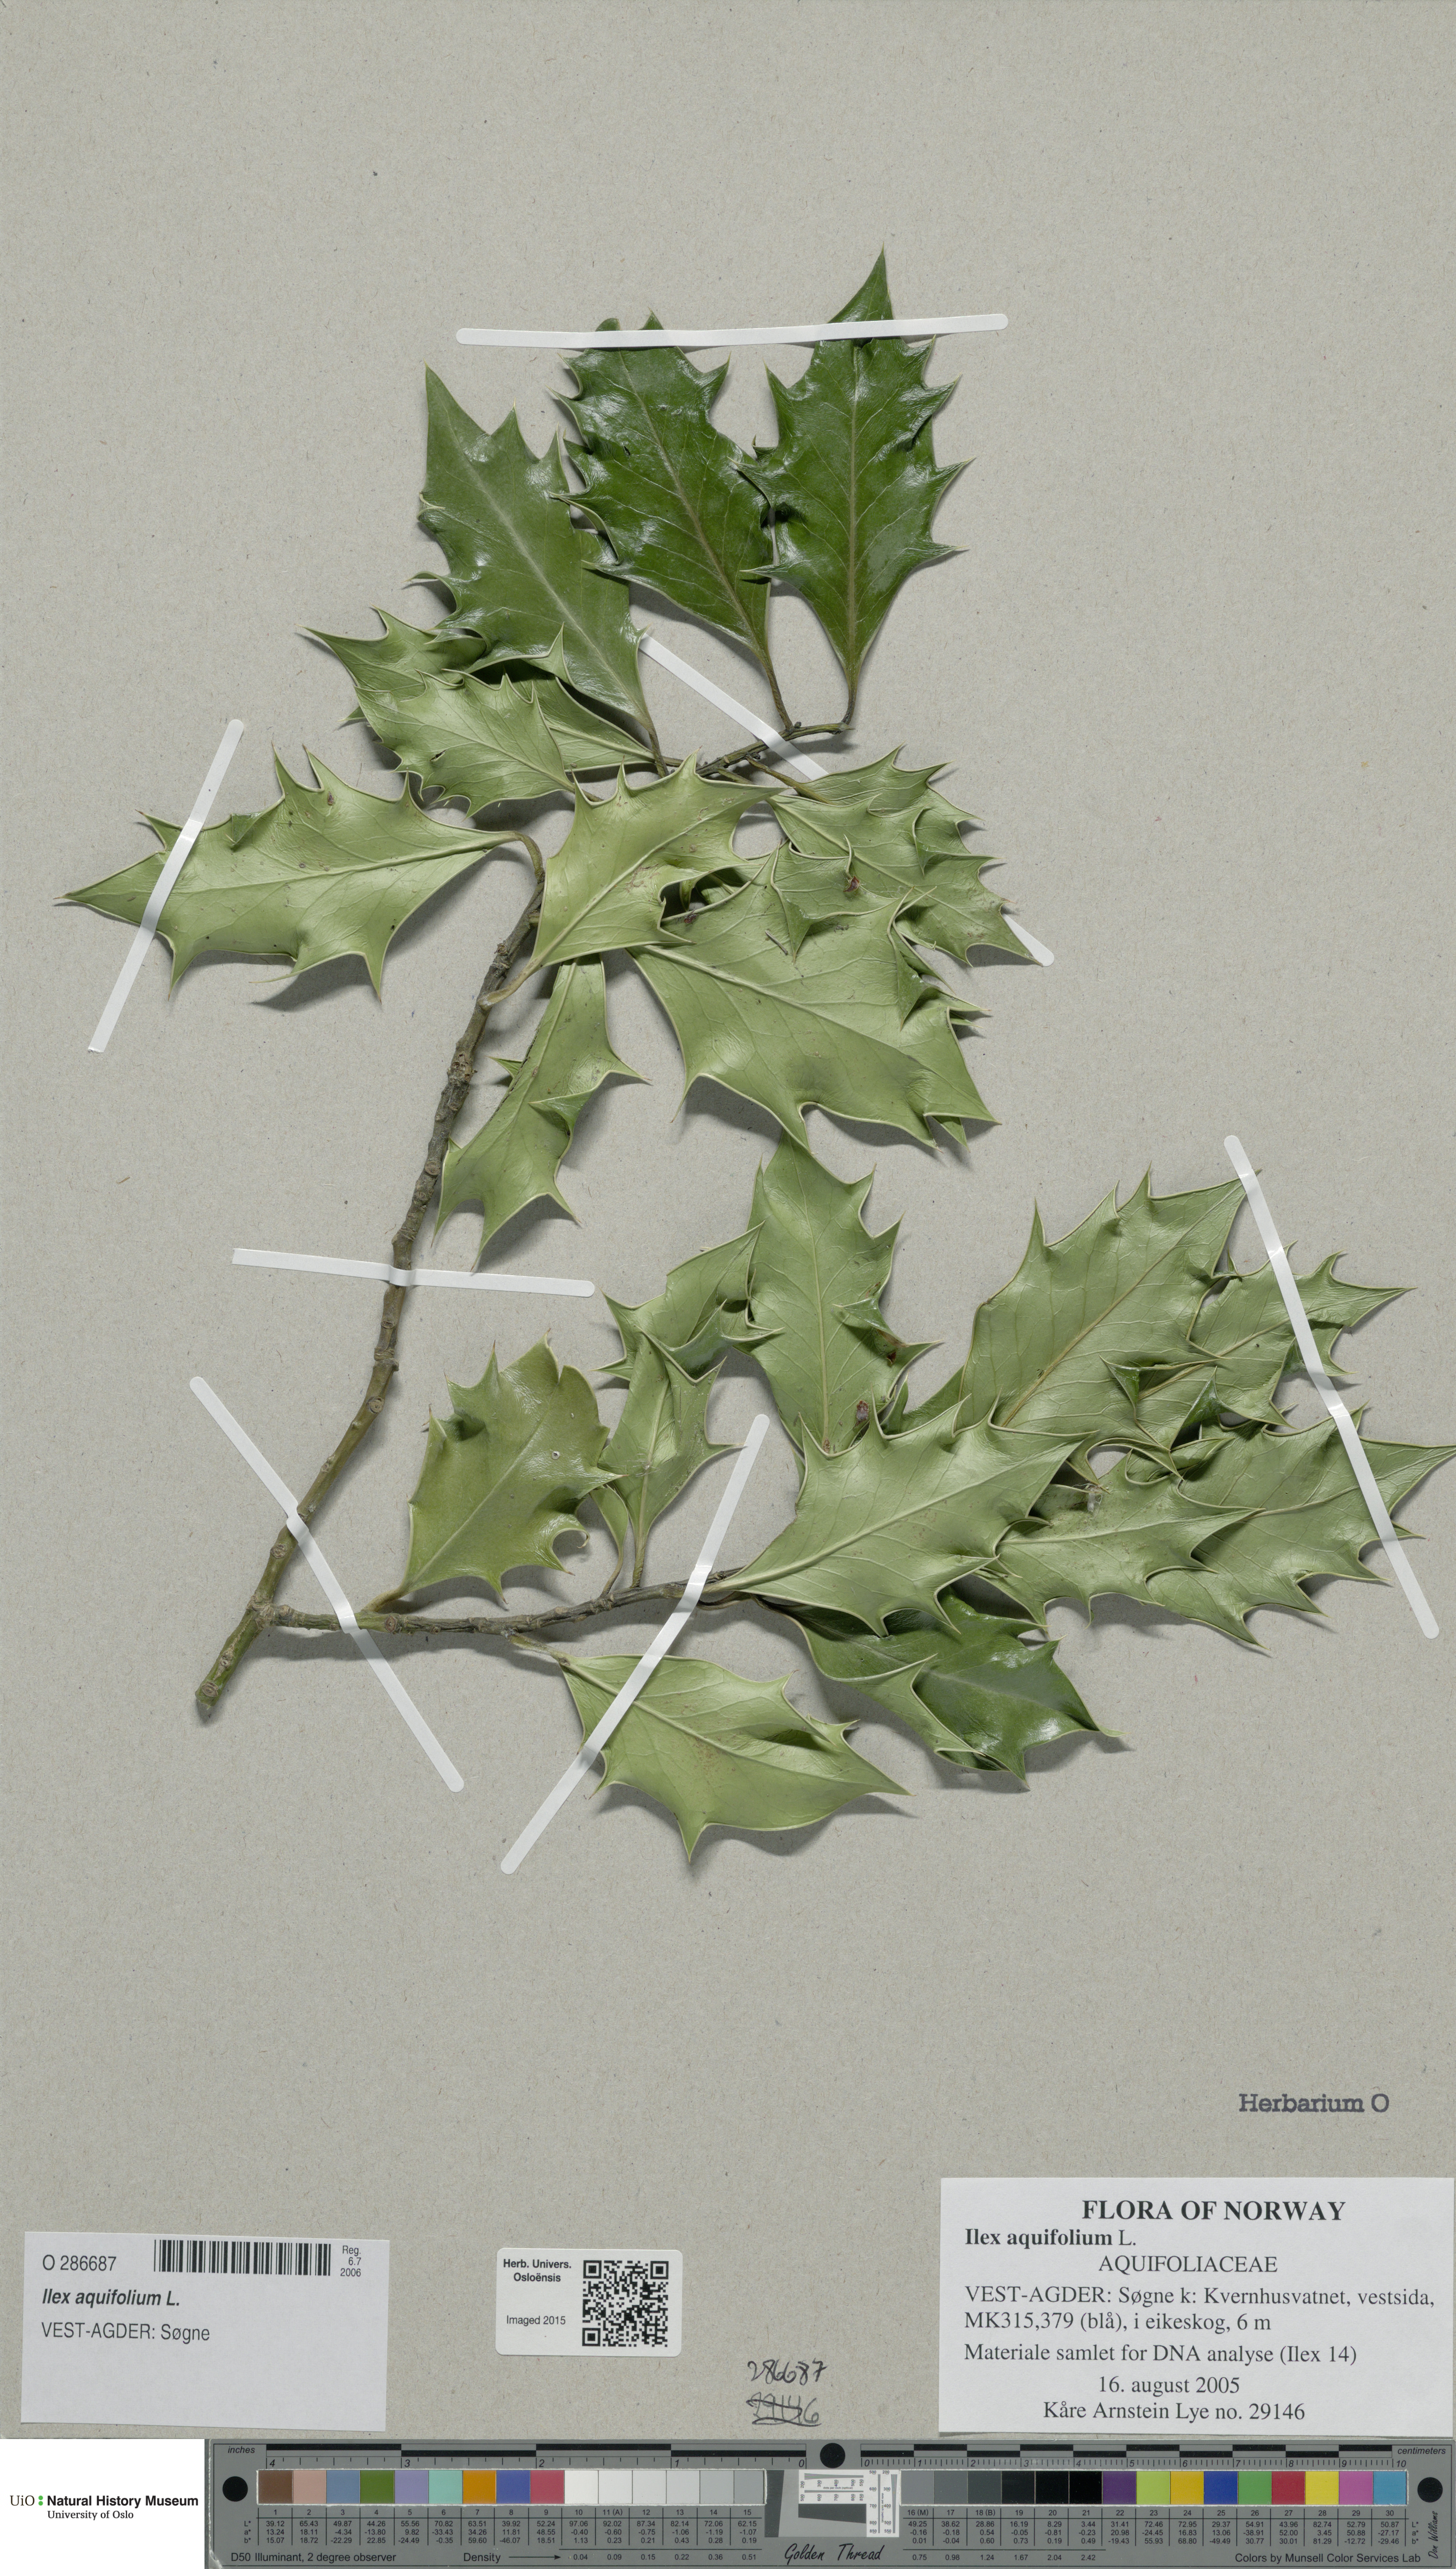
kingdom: Plantae
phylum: Tracheophyta
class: Magnoliopsida
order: Aquifoliales
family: Aquifoliaceae
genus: Ilex
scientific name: Ilex aquifolium
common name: English holly
